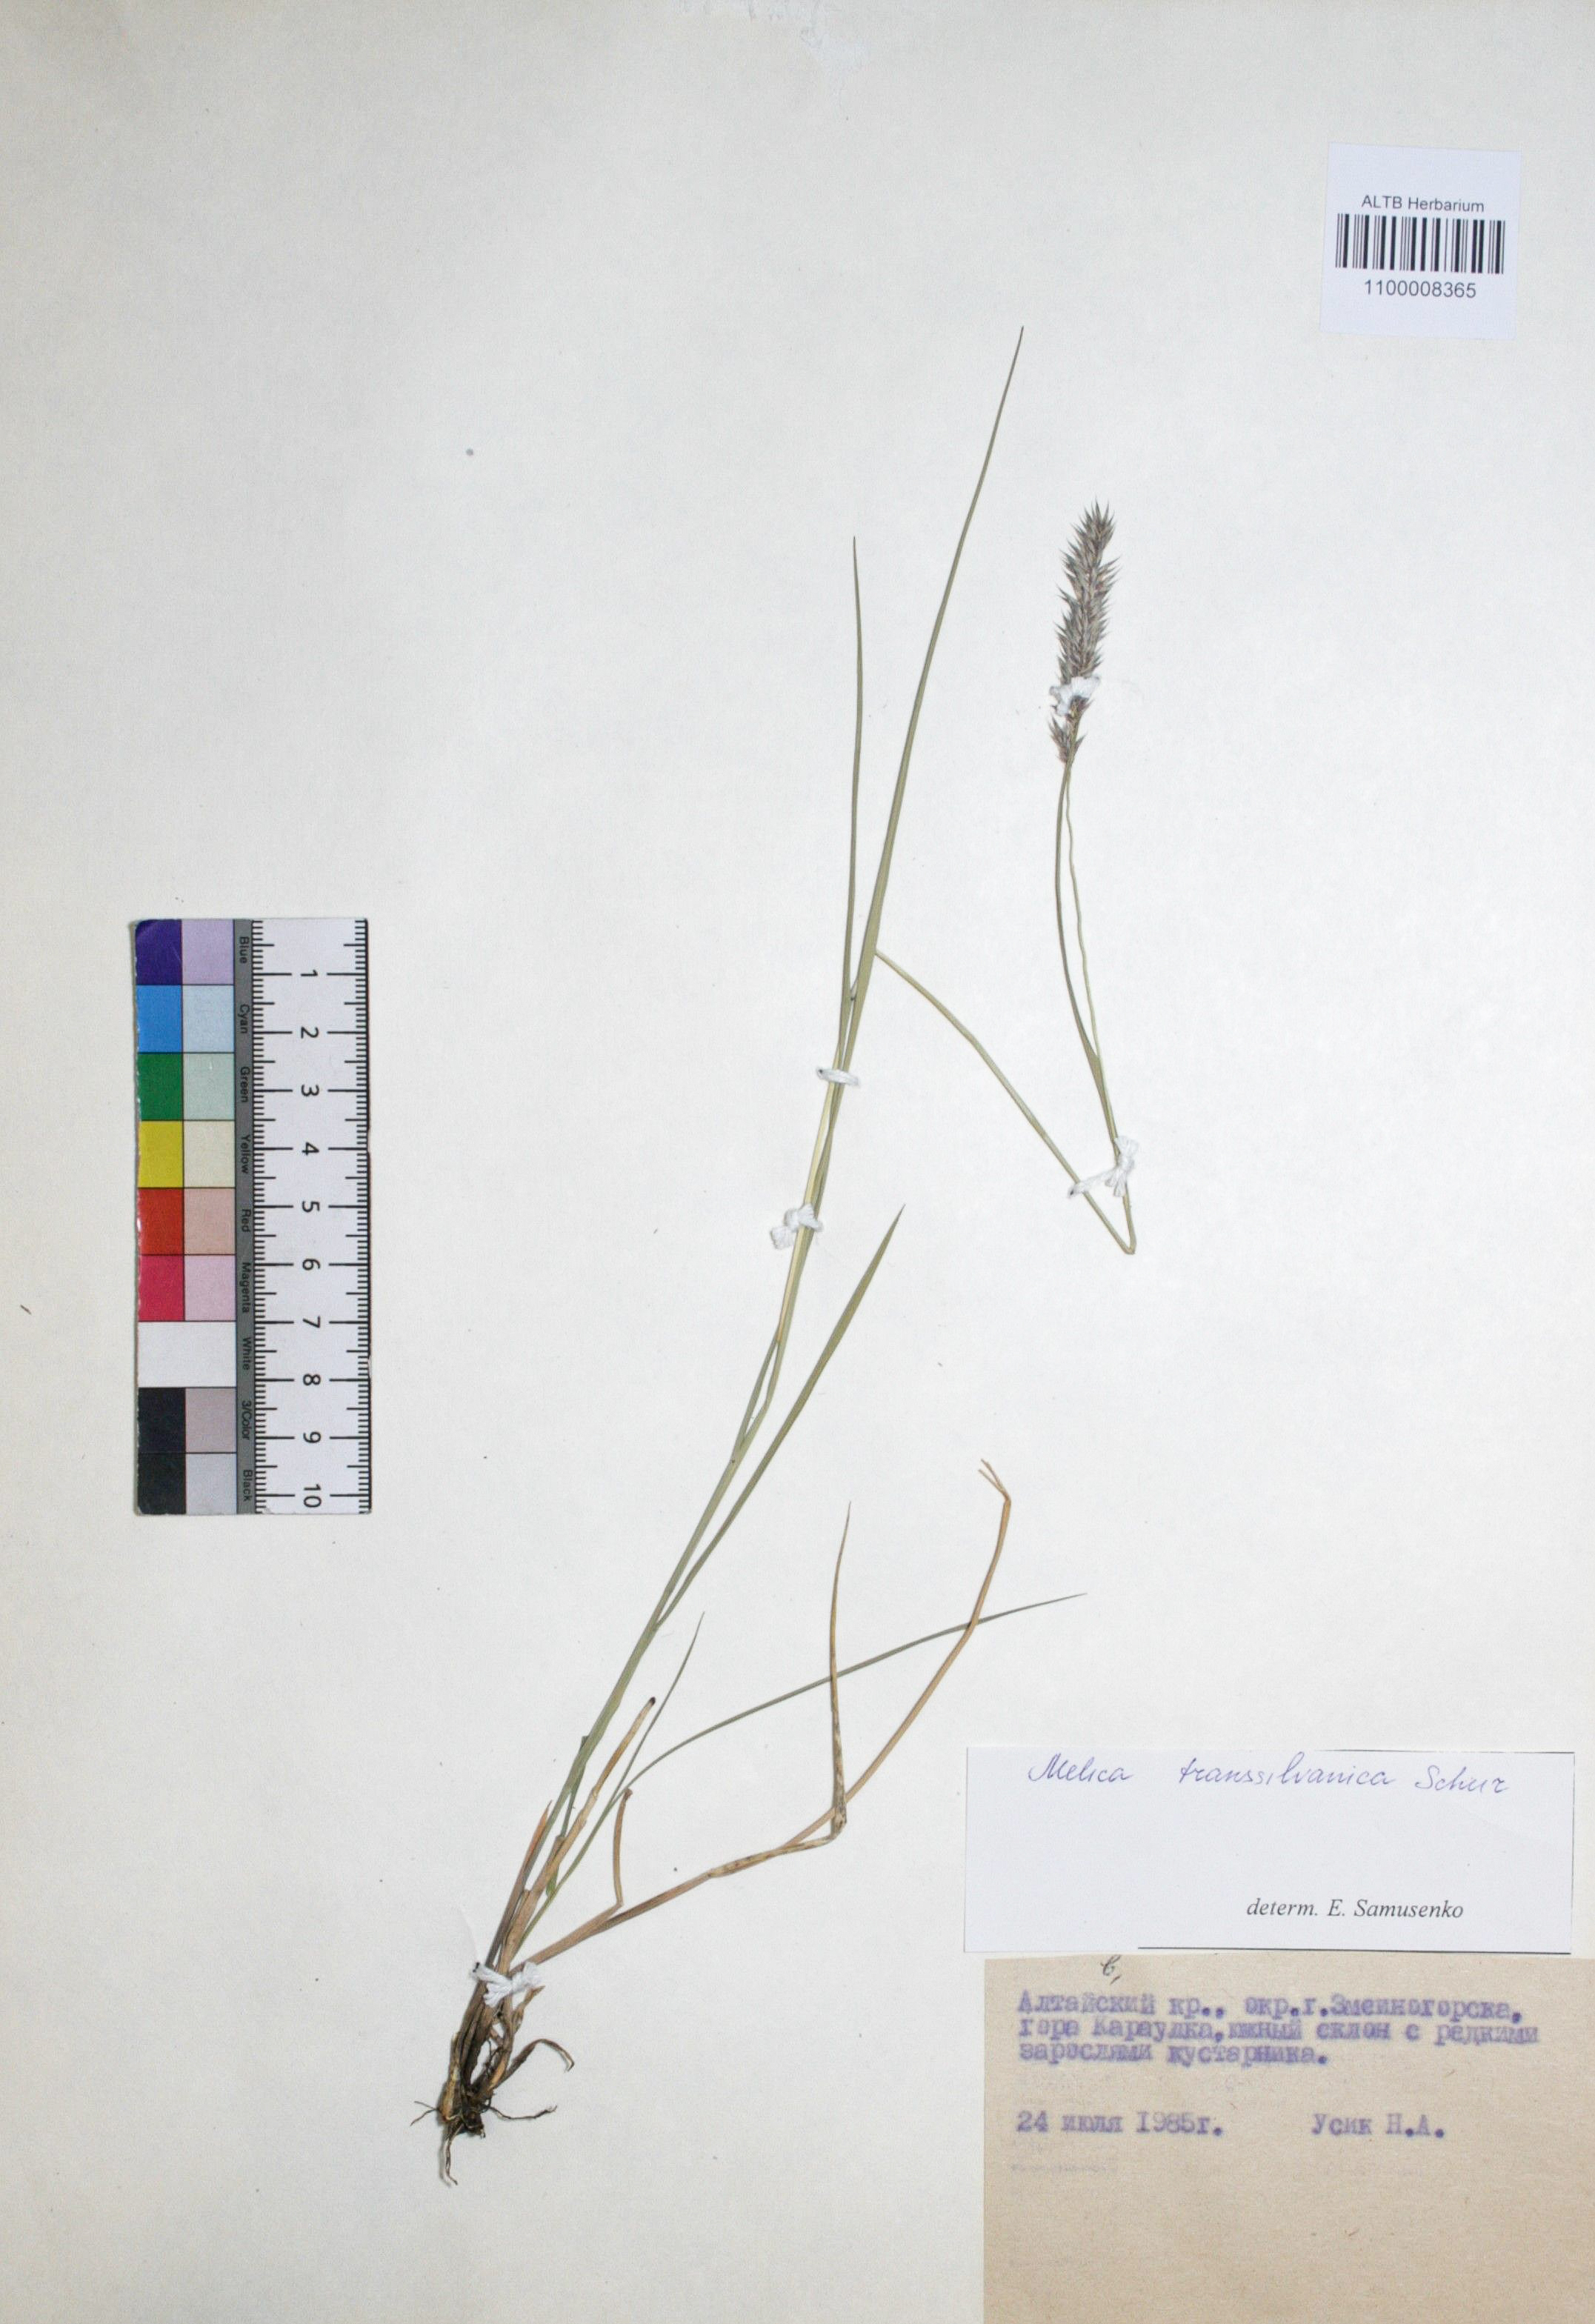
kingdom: Plantae
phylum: Tracheophyta
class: Liliopsida
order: Poales
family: Poaceae
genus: Melica
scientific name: Melica transsilvanica
